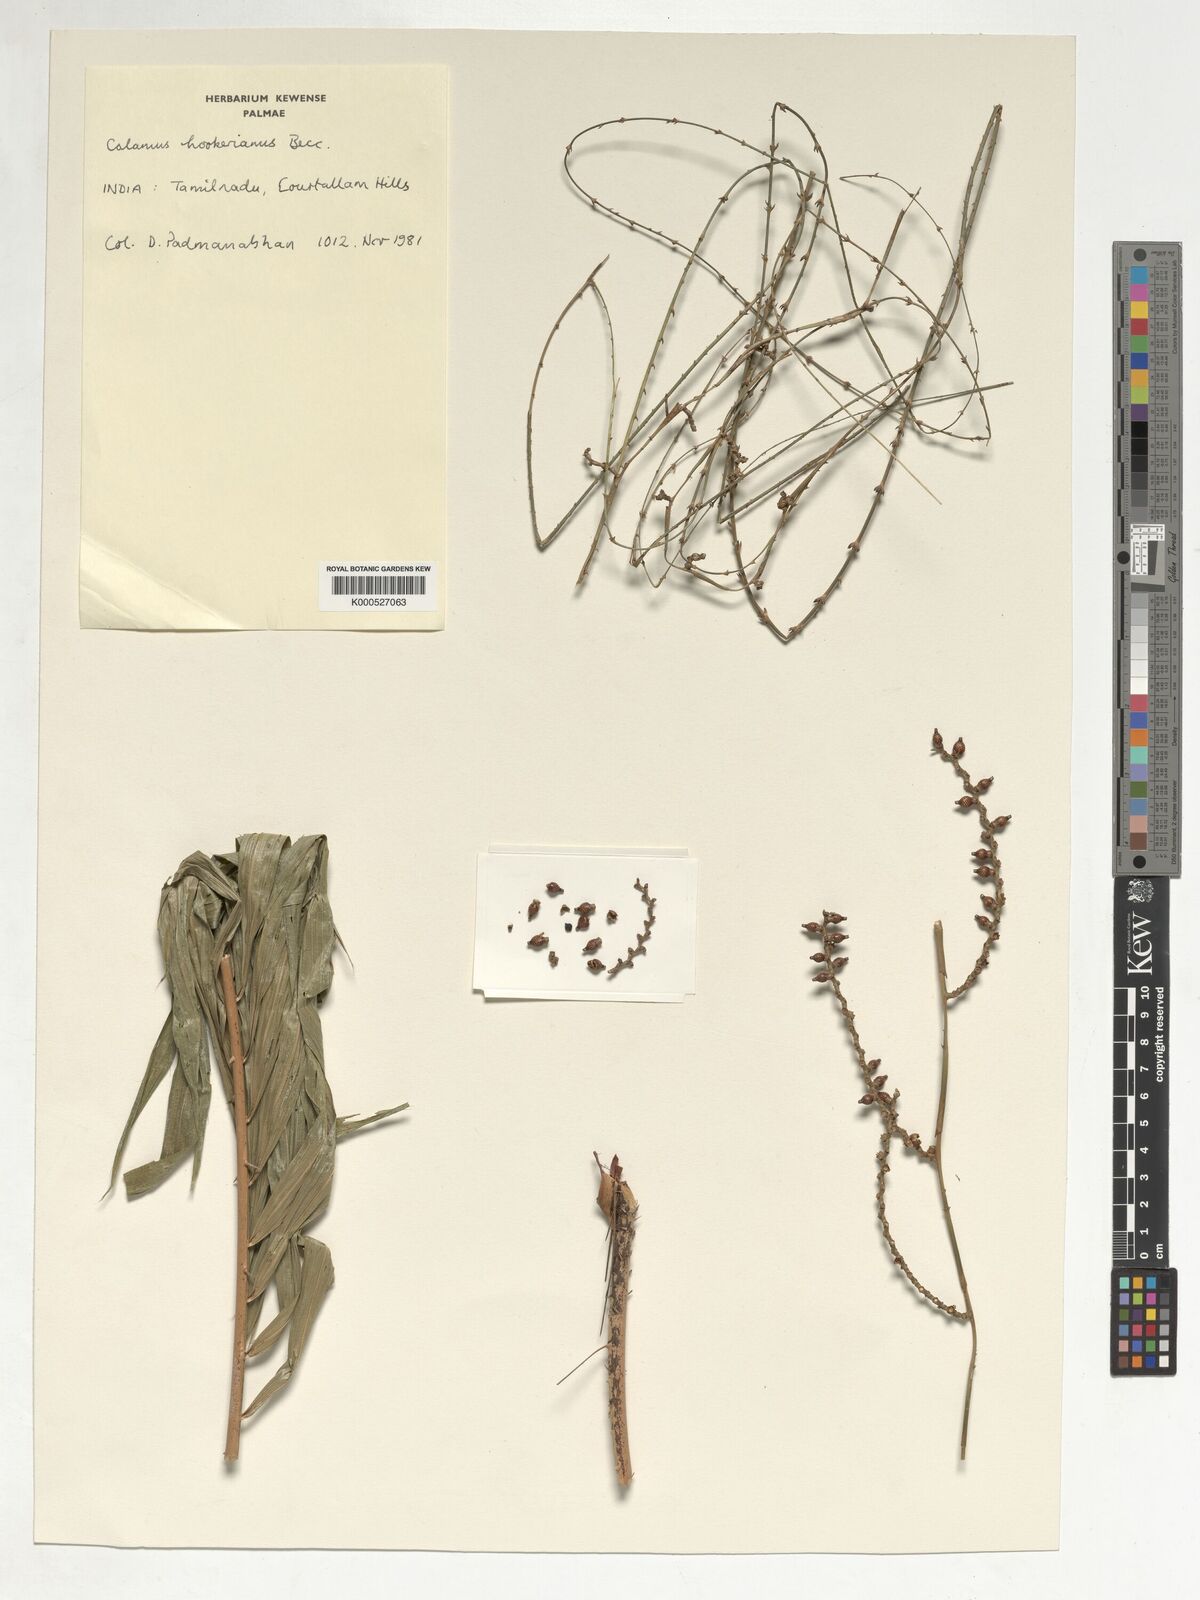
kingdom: Plantae
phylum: Tracheophyta
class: Liliopsida
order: Arecales
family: Arecaceae
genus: Calamus
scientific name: Calamus hookerianus
